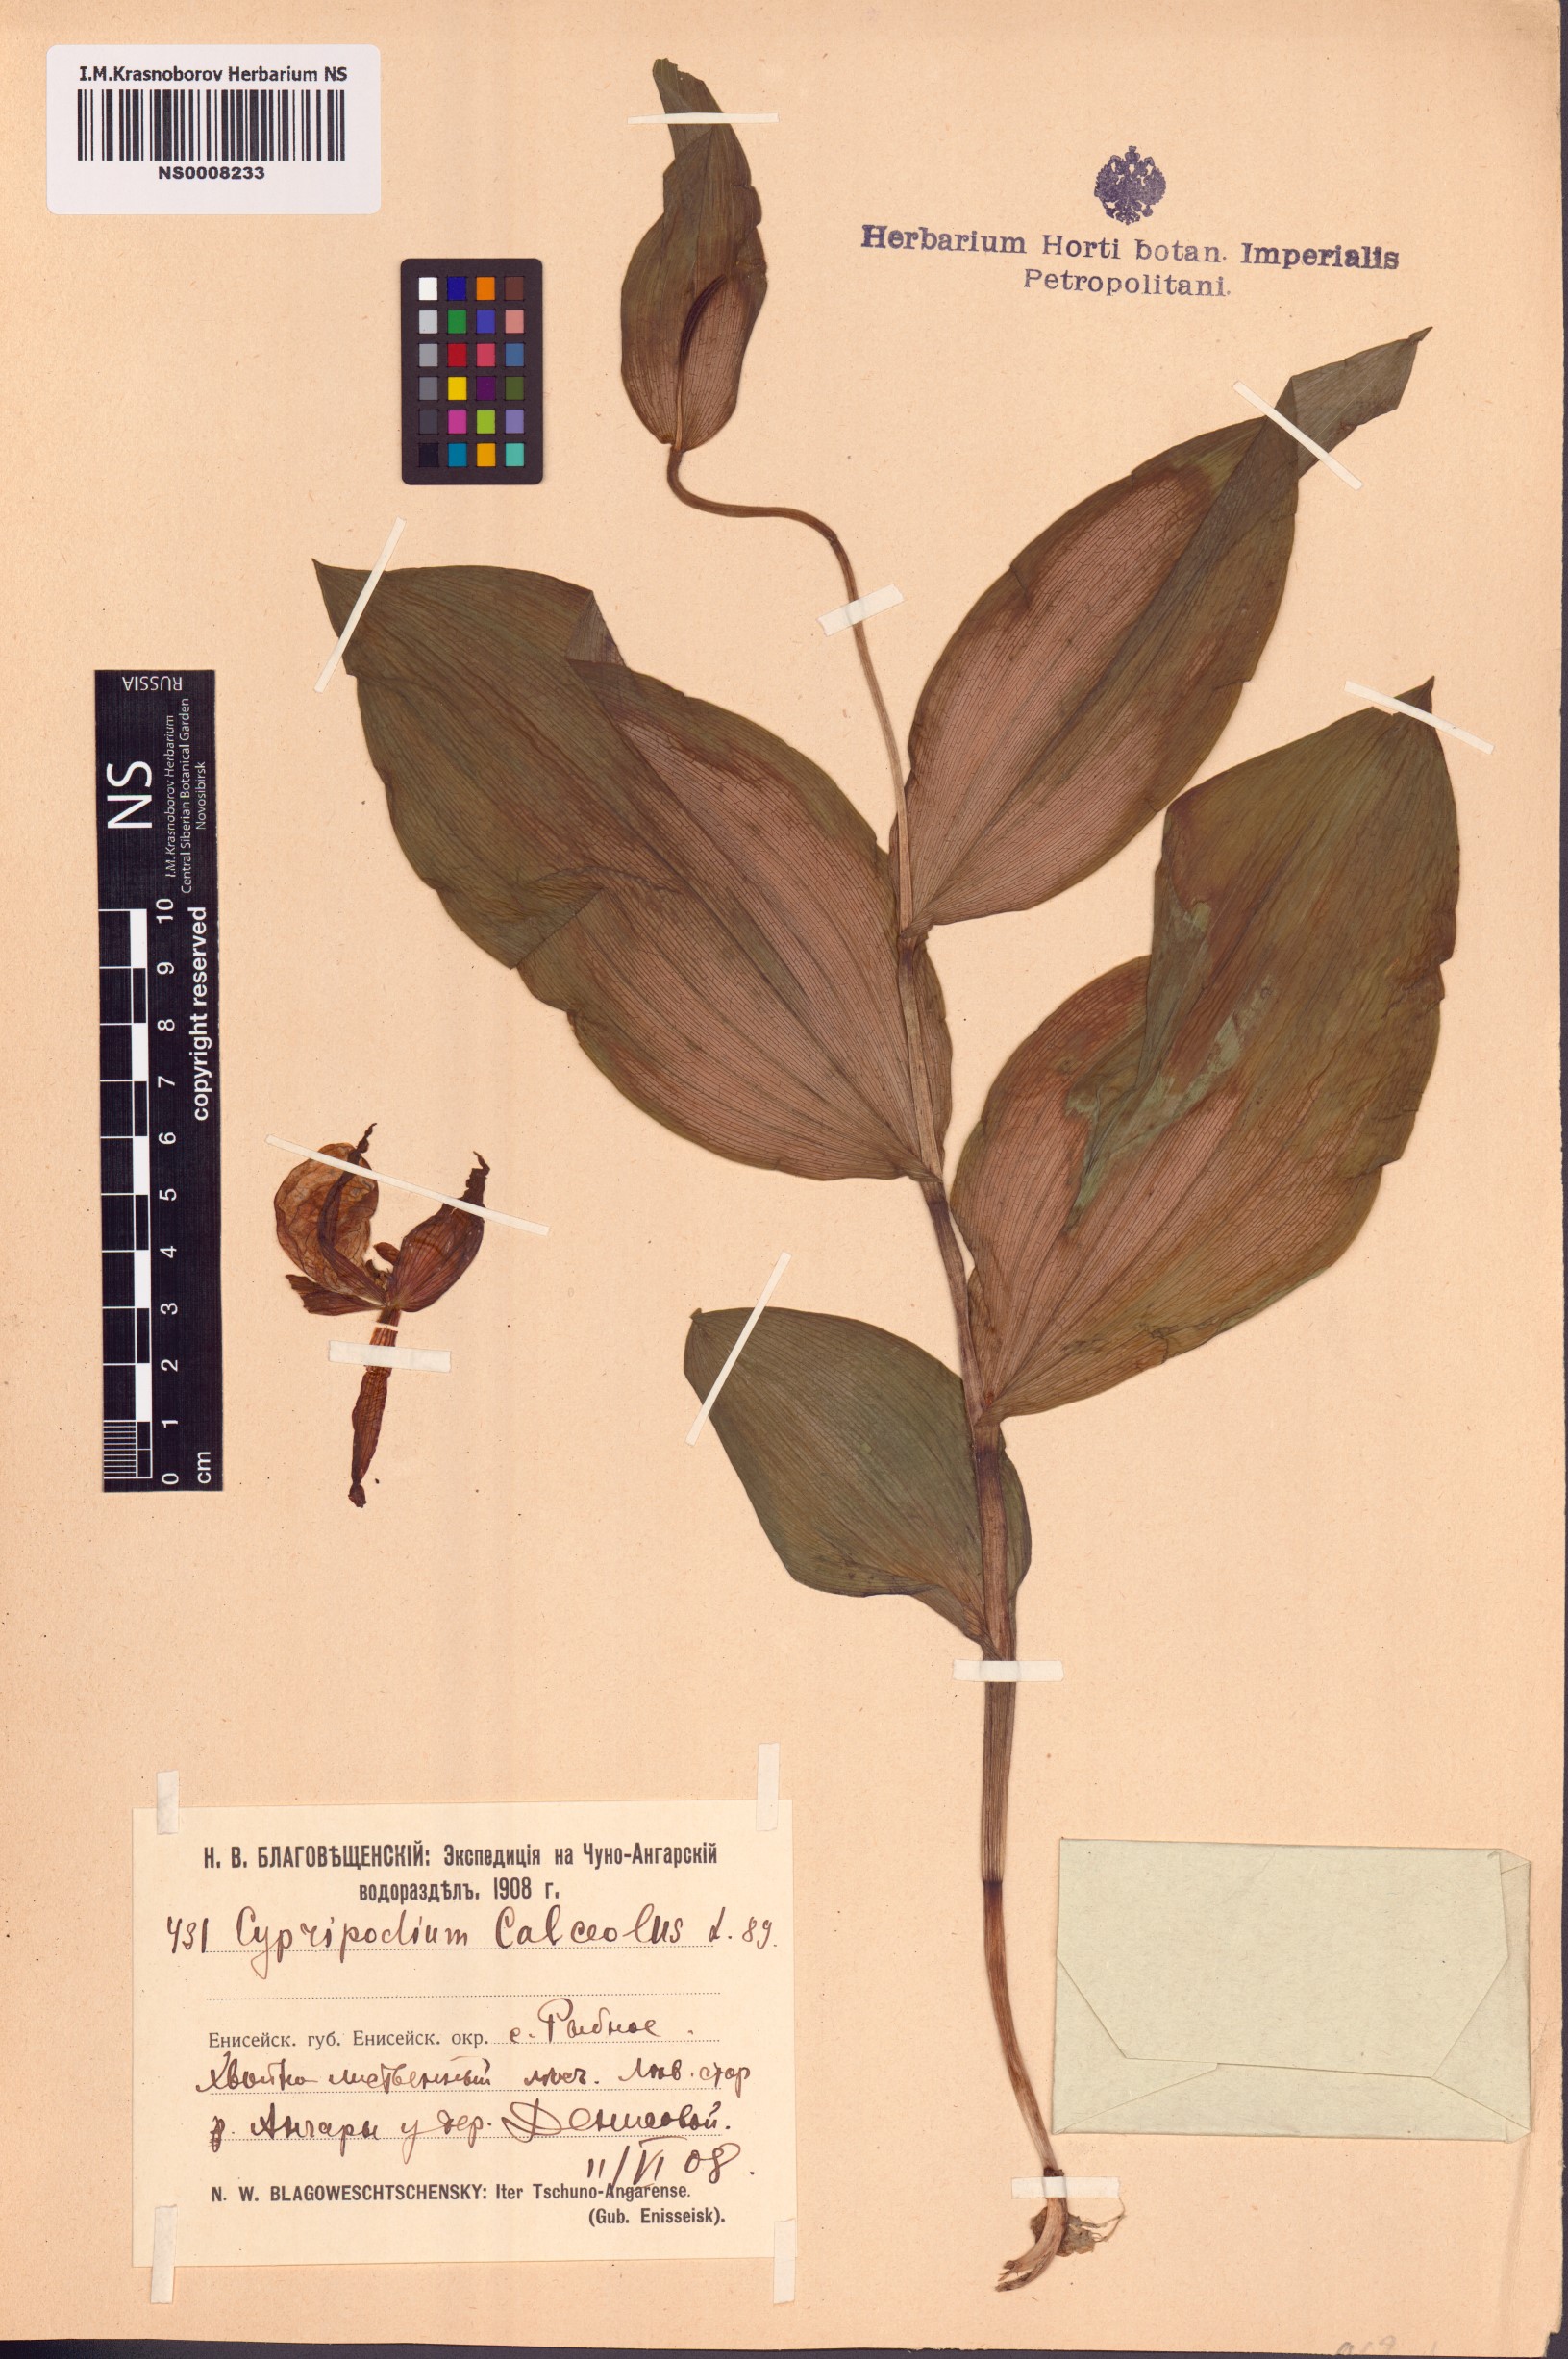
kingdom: Plantae
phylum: Tracheophyta
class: Liliopsida
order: Asparagales
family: Orchidaceae
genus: Cypripedium
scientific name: Cypripedium calceolus
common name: Lady's-slipper
